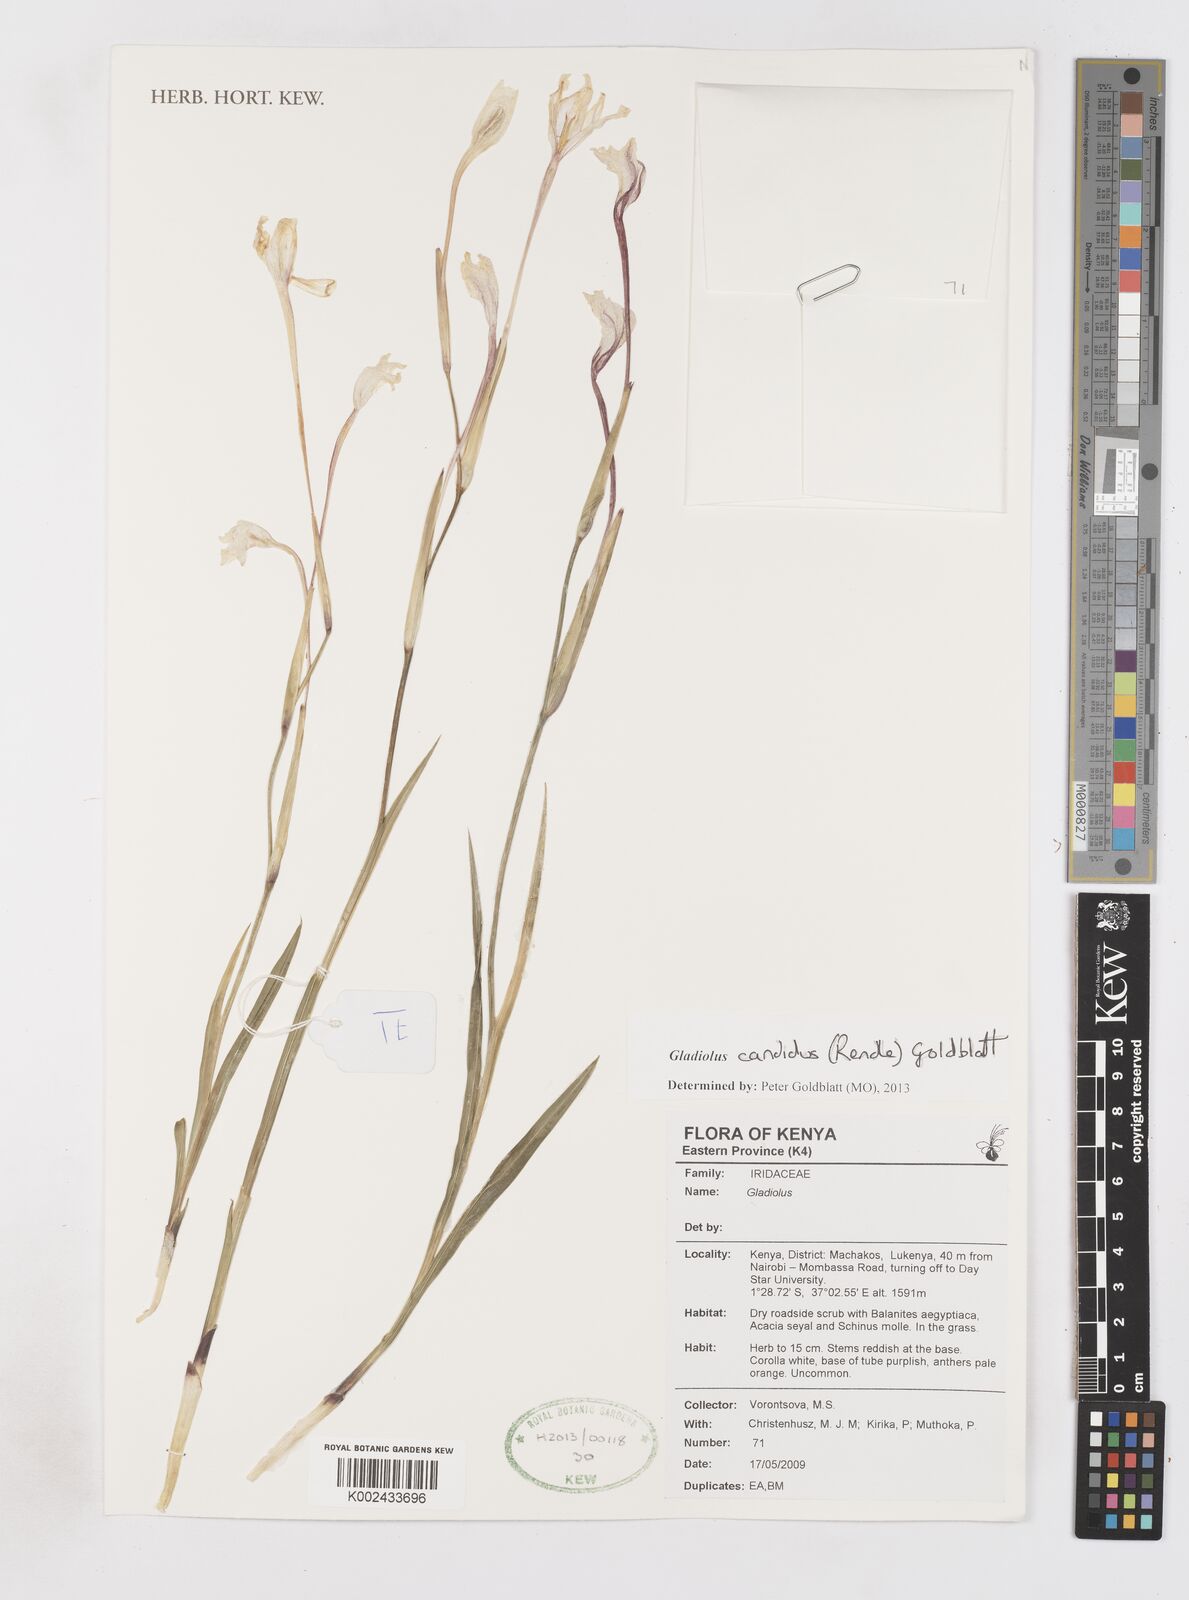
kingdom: Plantae
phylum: Tracheophyta
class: Liliopsida
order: Asparagales
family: Iridaceae
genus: Gladiolus
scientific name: Gladiolus candidus
